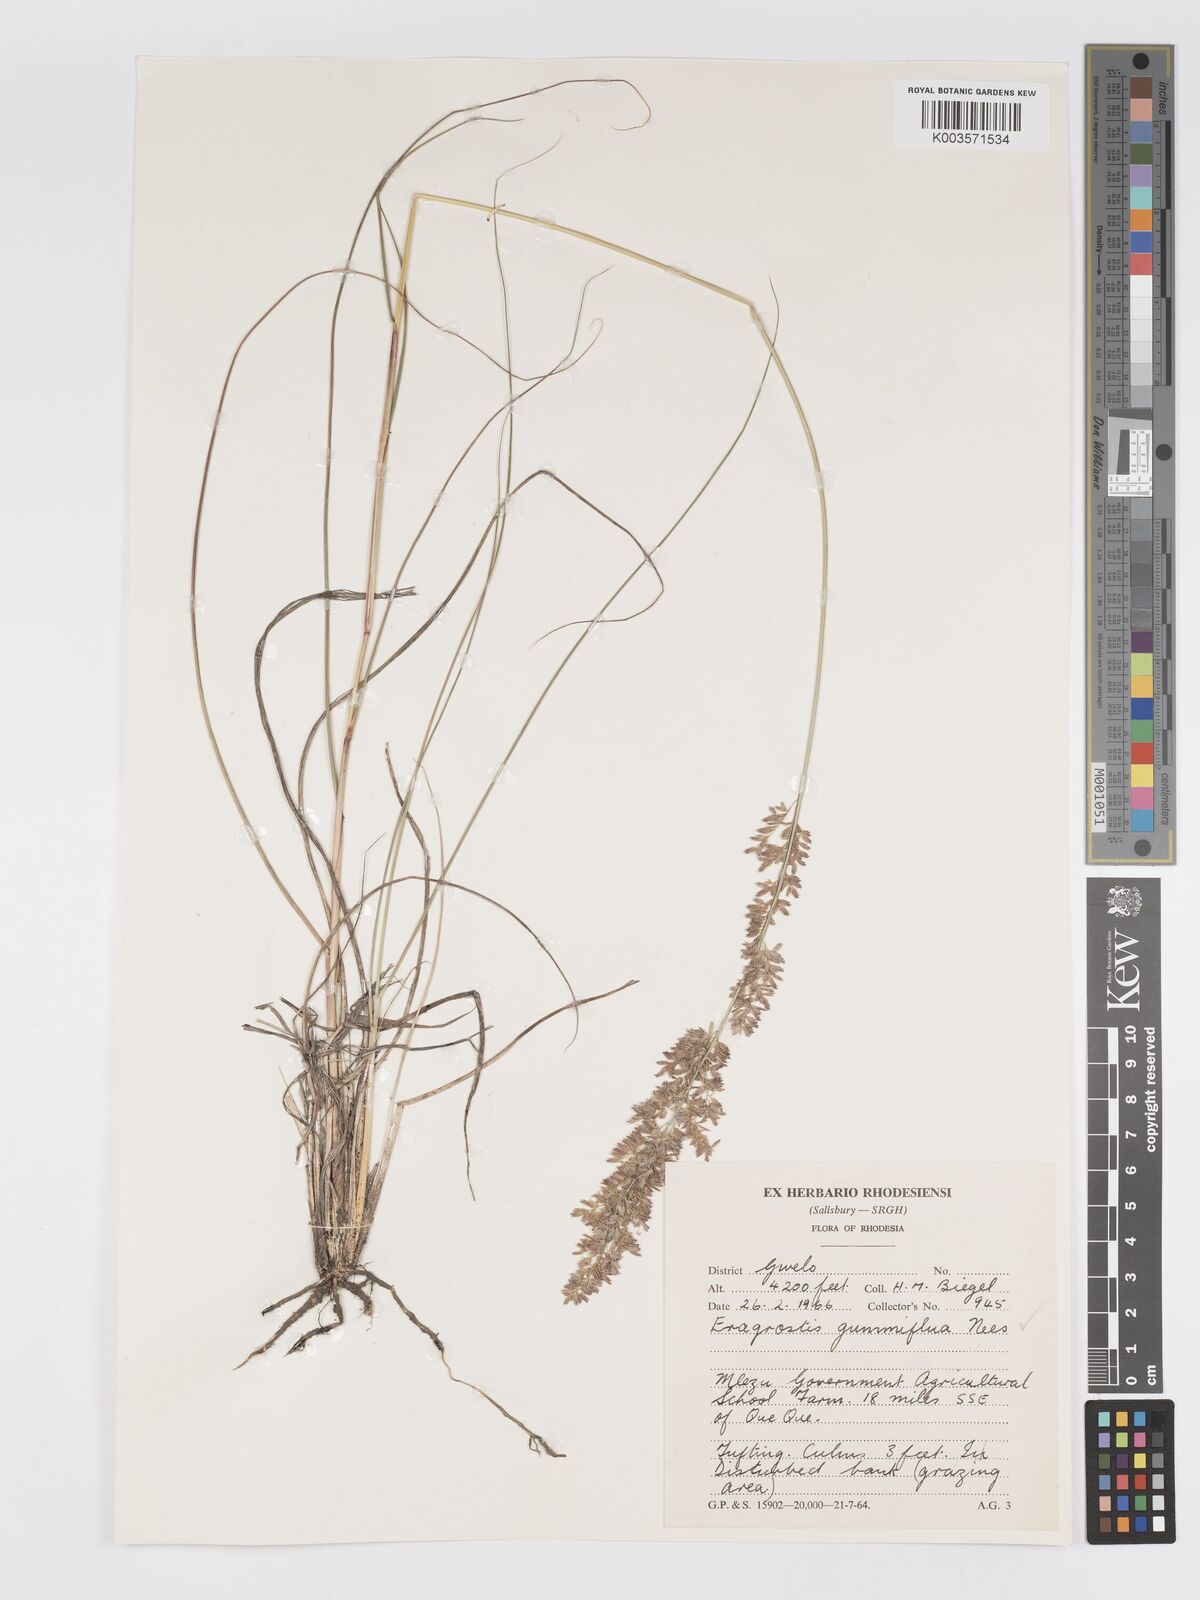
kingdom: Plantae
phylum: Tracheophyta
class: Liliopsida
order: Poales
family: Poaceae
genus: Eragrostis
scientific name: Eragrostis gummiflua
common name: Gum grass
